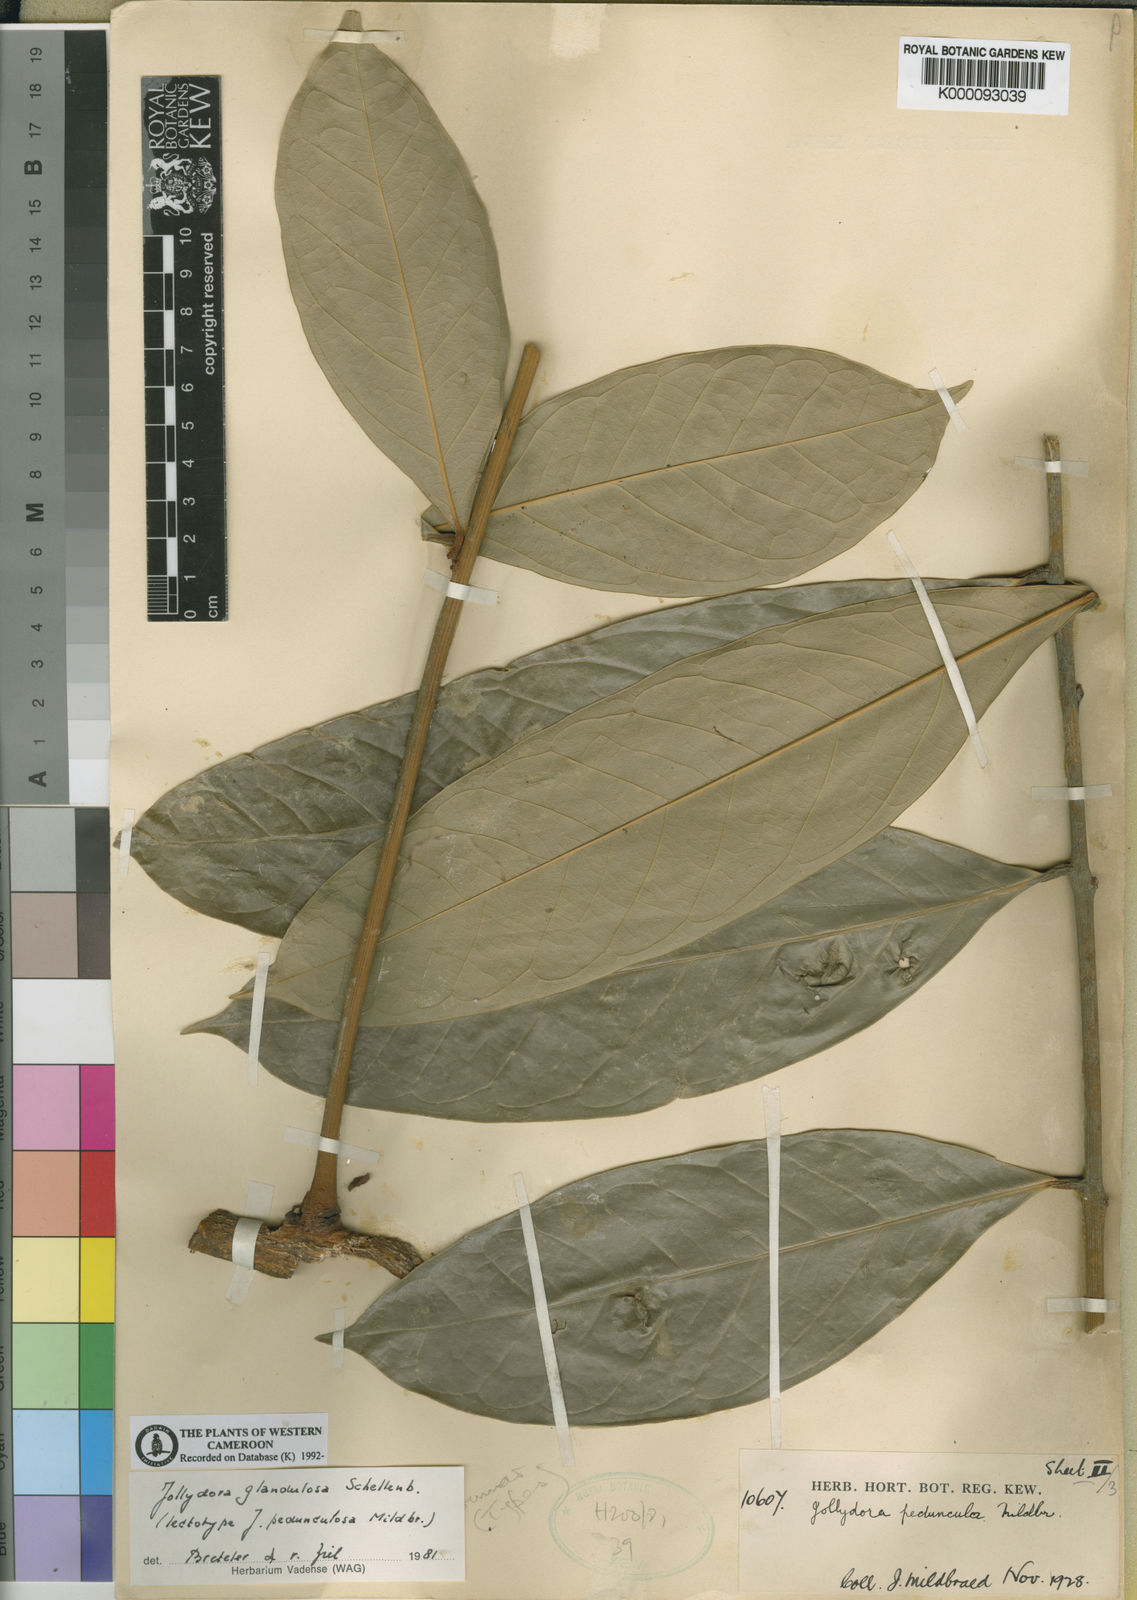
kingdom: Plantae
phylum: Tracheophyta
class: Magnoliopsida
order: Oxalidales
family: Connaraceae
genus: Jollydora
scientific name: Jollydora glandulosa
